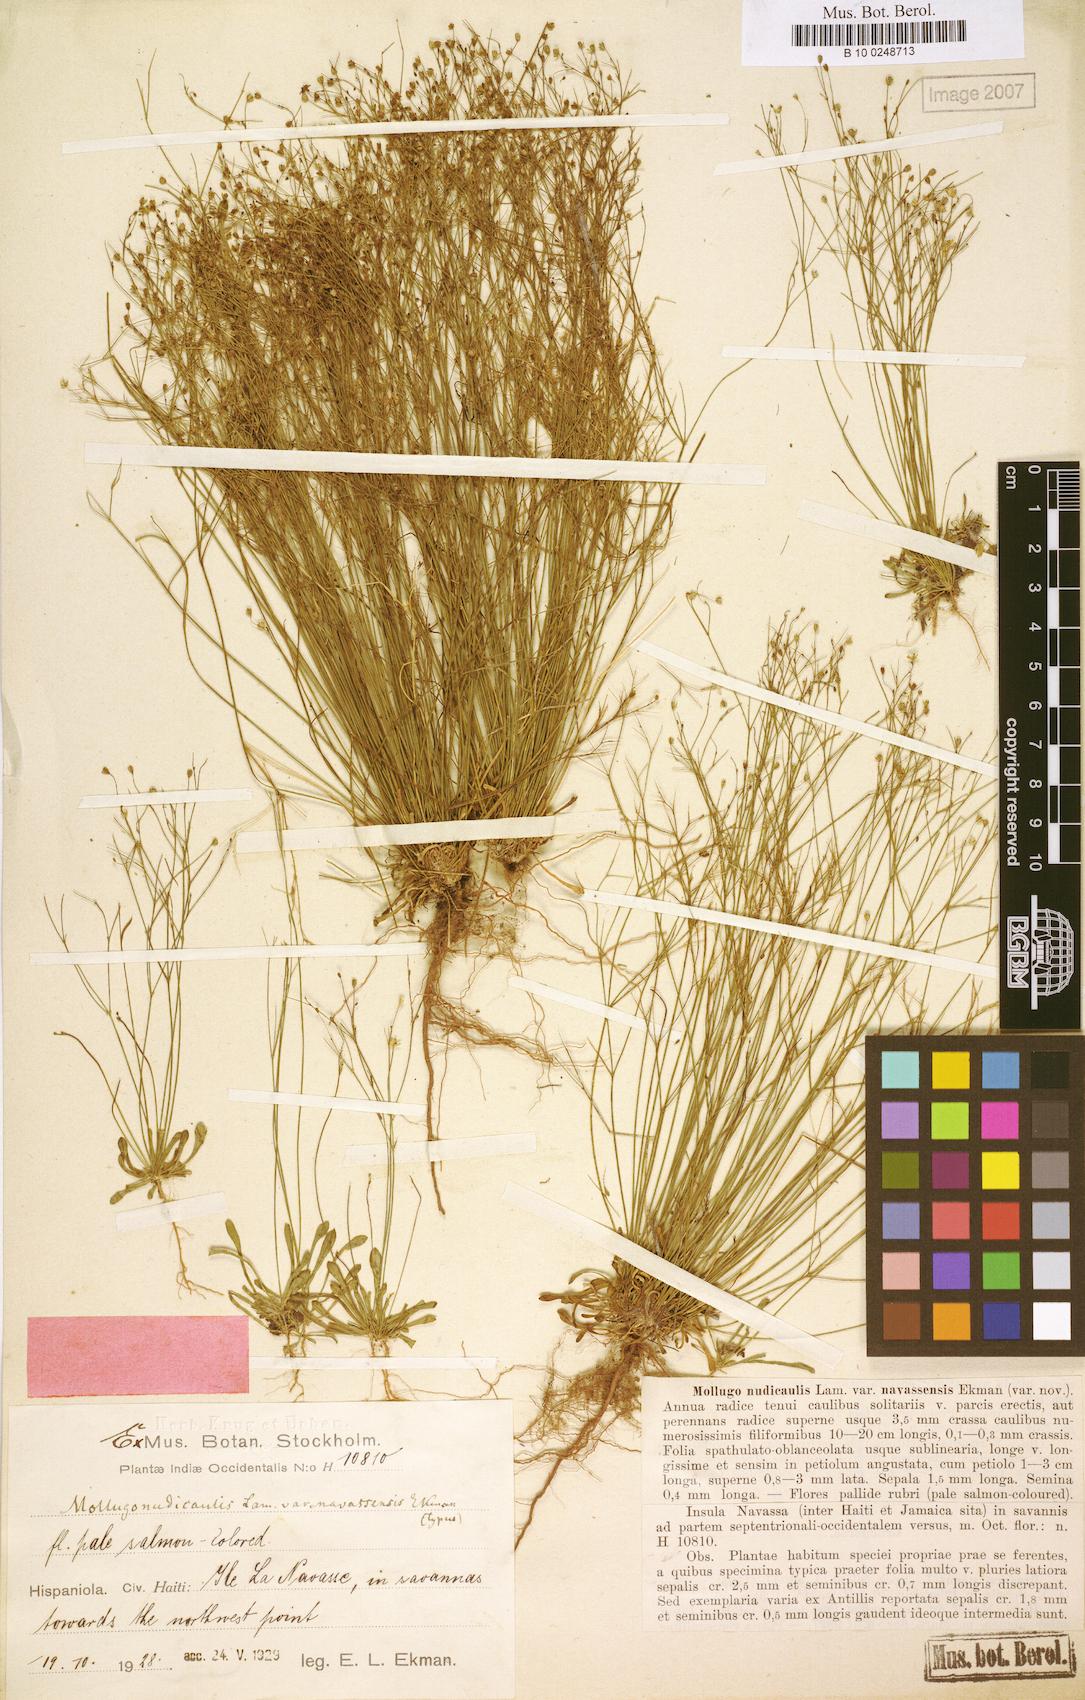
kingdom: Plantae
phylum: Tracheophyta
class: Magnoliopsida
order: Caryophyllales
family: Molluginaceae
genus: Paramollugo
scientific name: Paramollugo navassensis
